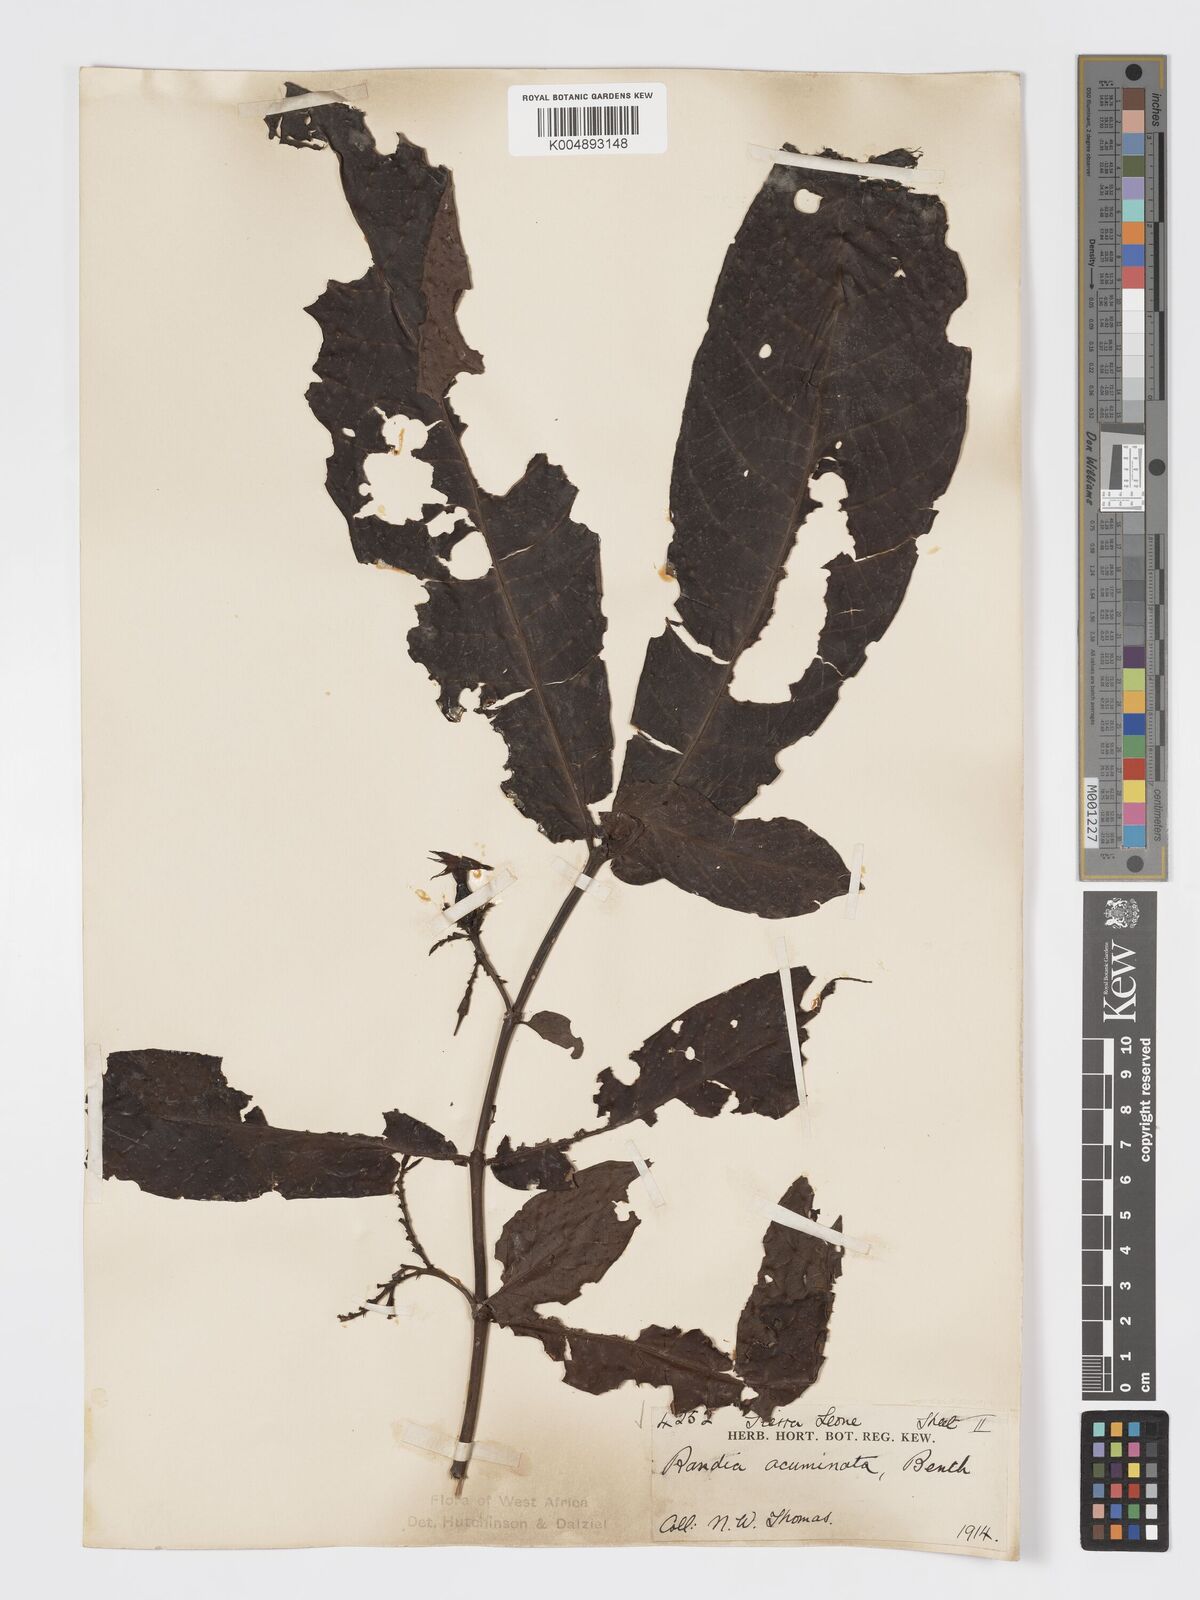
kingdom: Plantae
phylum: Tracheophyta
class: Magnoliopsida
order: Gentianales
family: Rubiaceae
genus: Massularia
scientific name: Massularia acuminata
